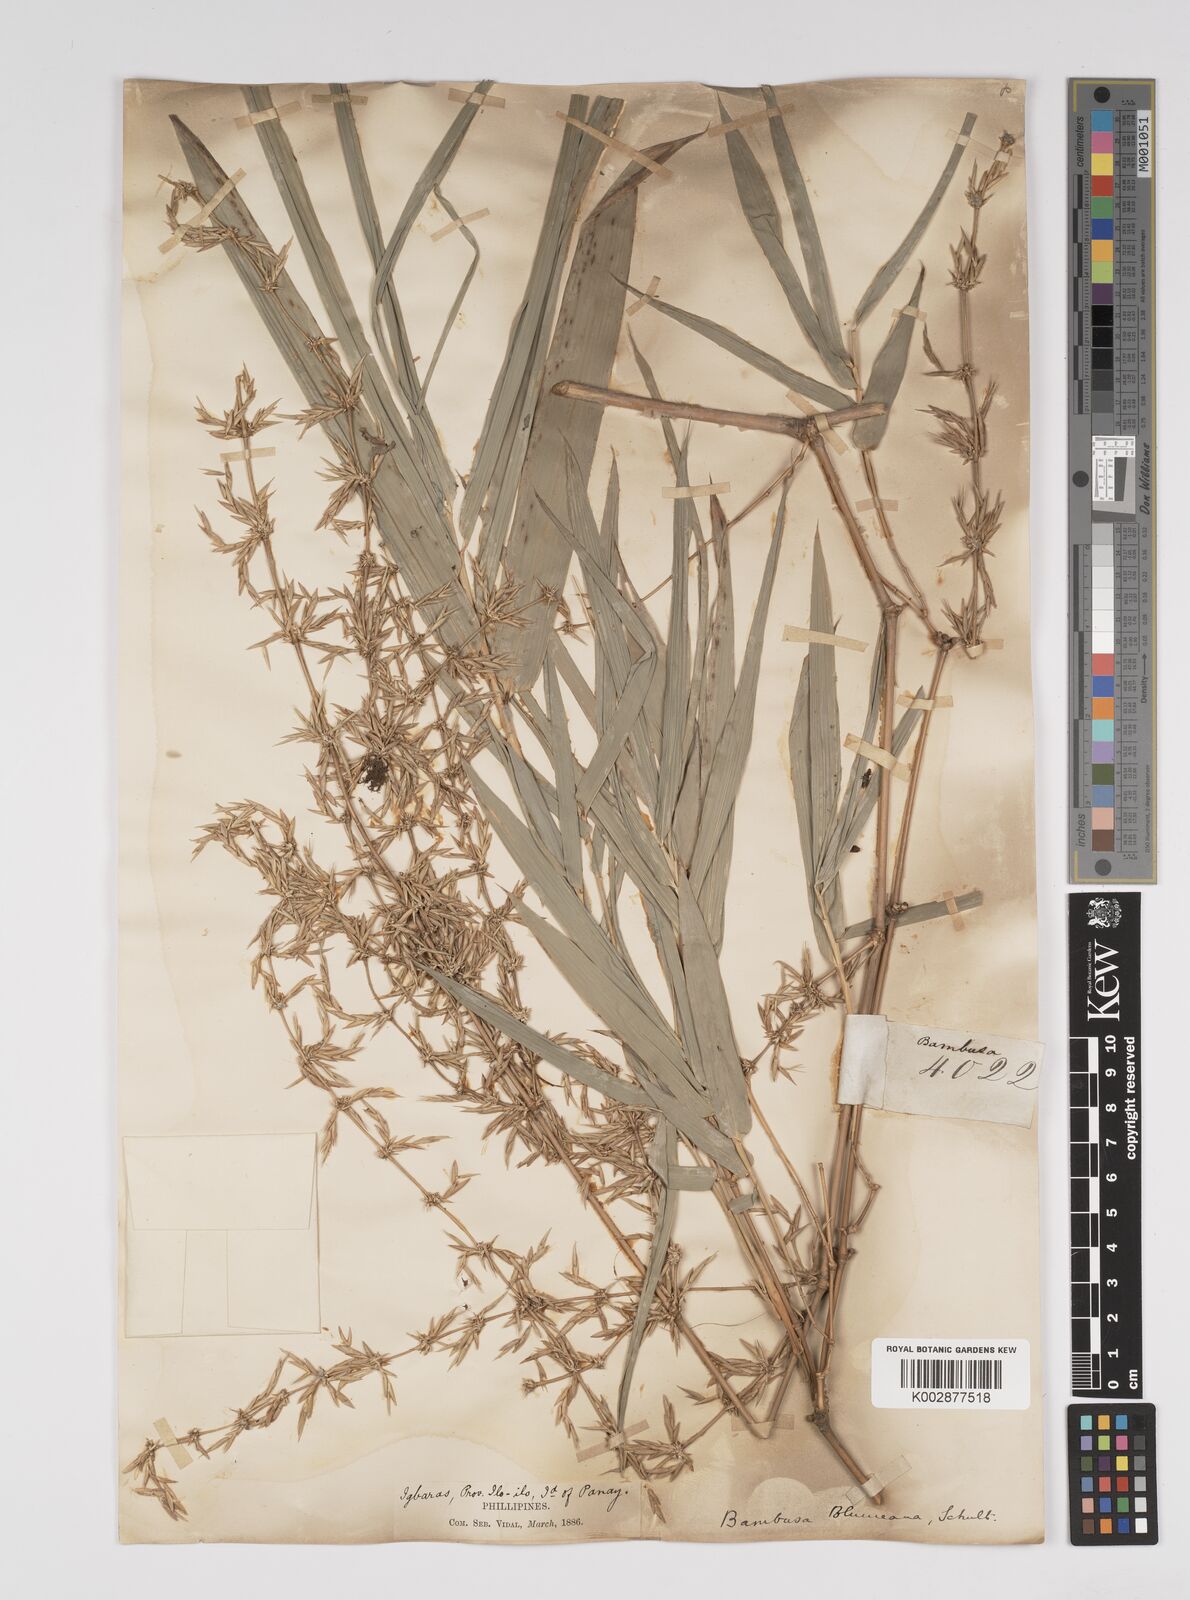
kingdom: Plantae
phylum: Tracheophyta
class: Liliopsida
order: Poales
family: Poaceae
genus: Bambusa
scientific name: Bambusa spinosa
